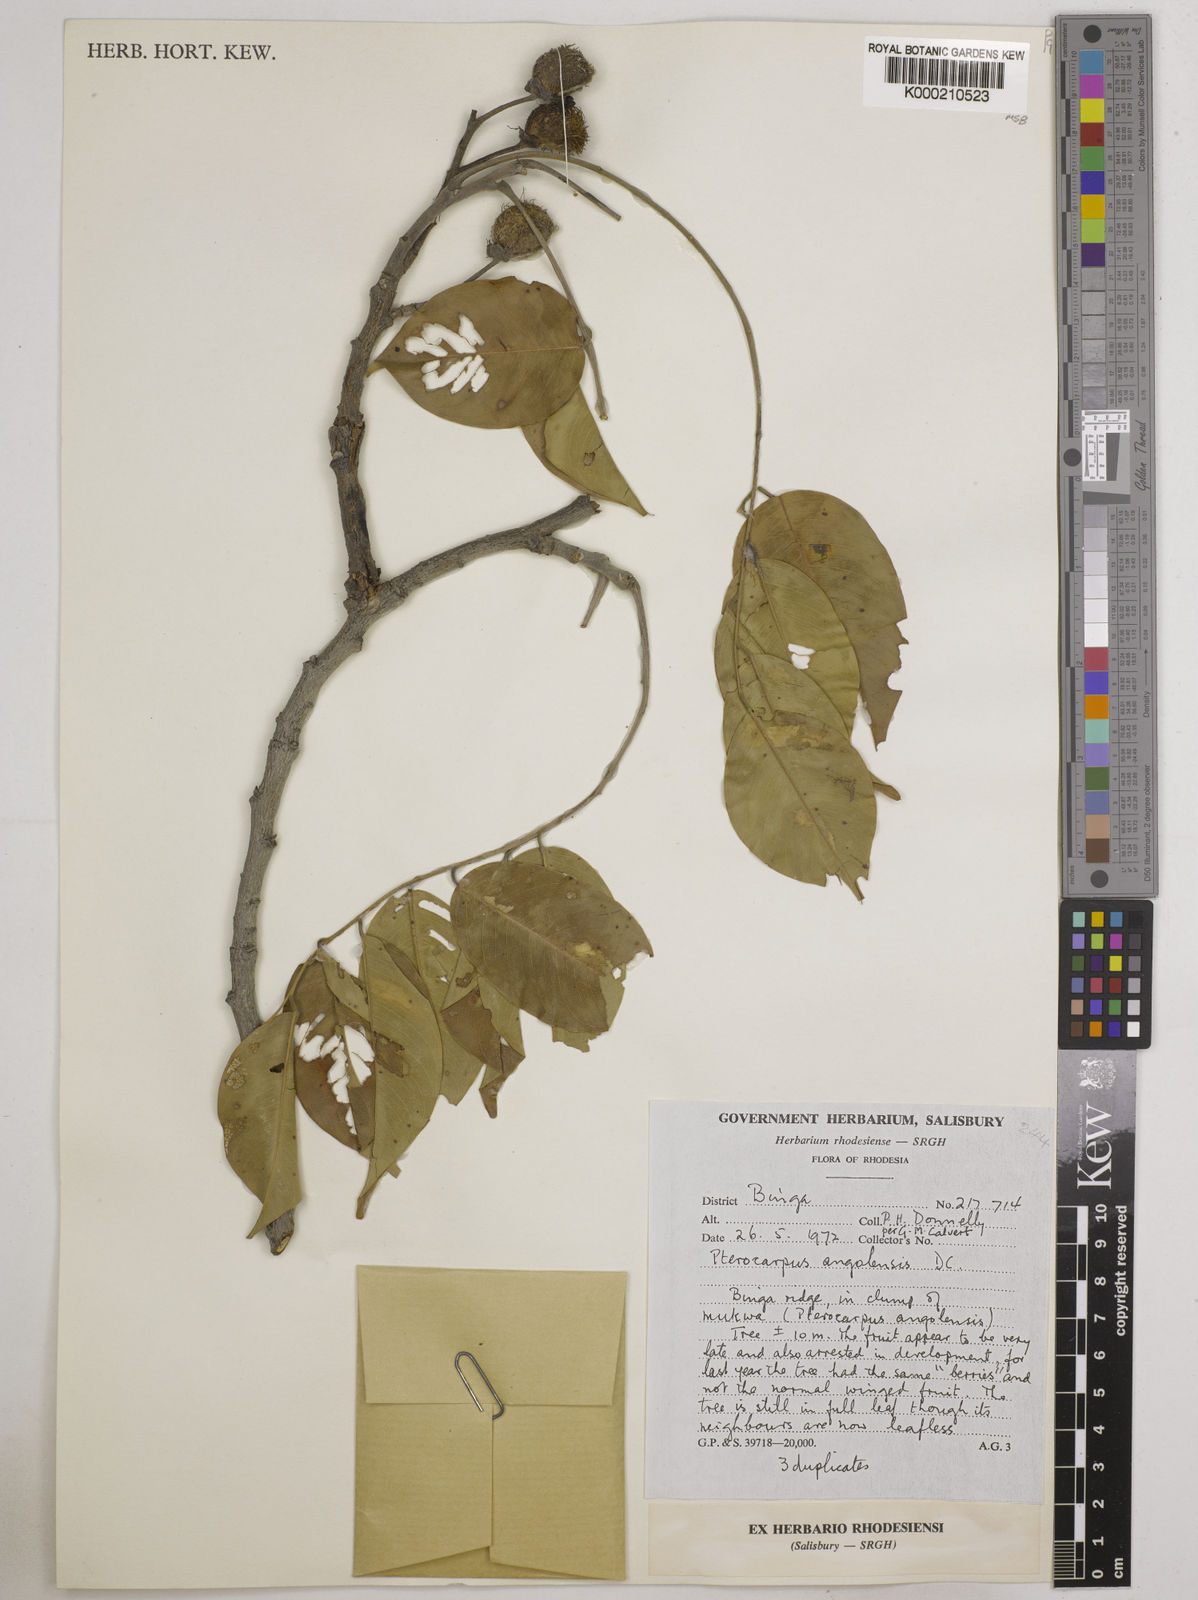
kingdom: Plantae
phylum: Tracheophyta
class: Magnoliopsida
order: Fabales
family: Fabaceae
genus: Pterocarpus
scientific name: Pterocarpus angolensis
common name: Bloodwood tree
